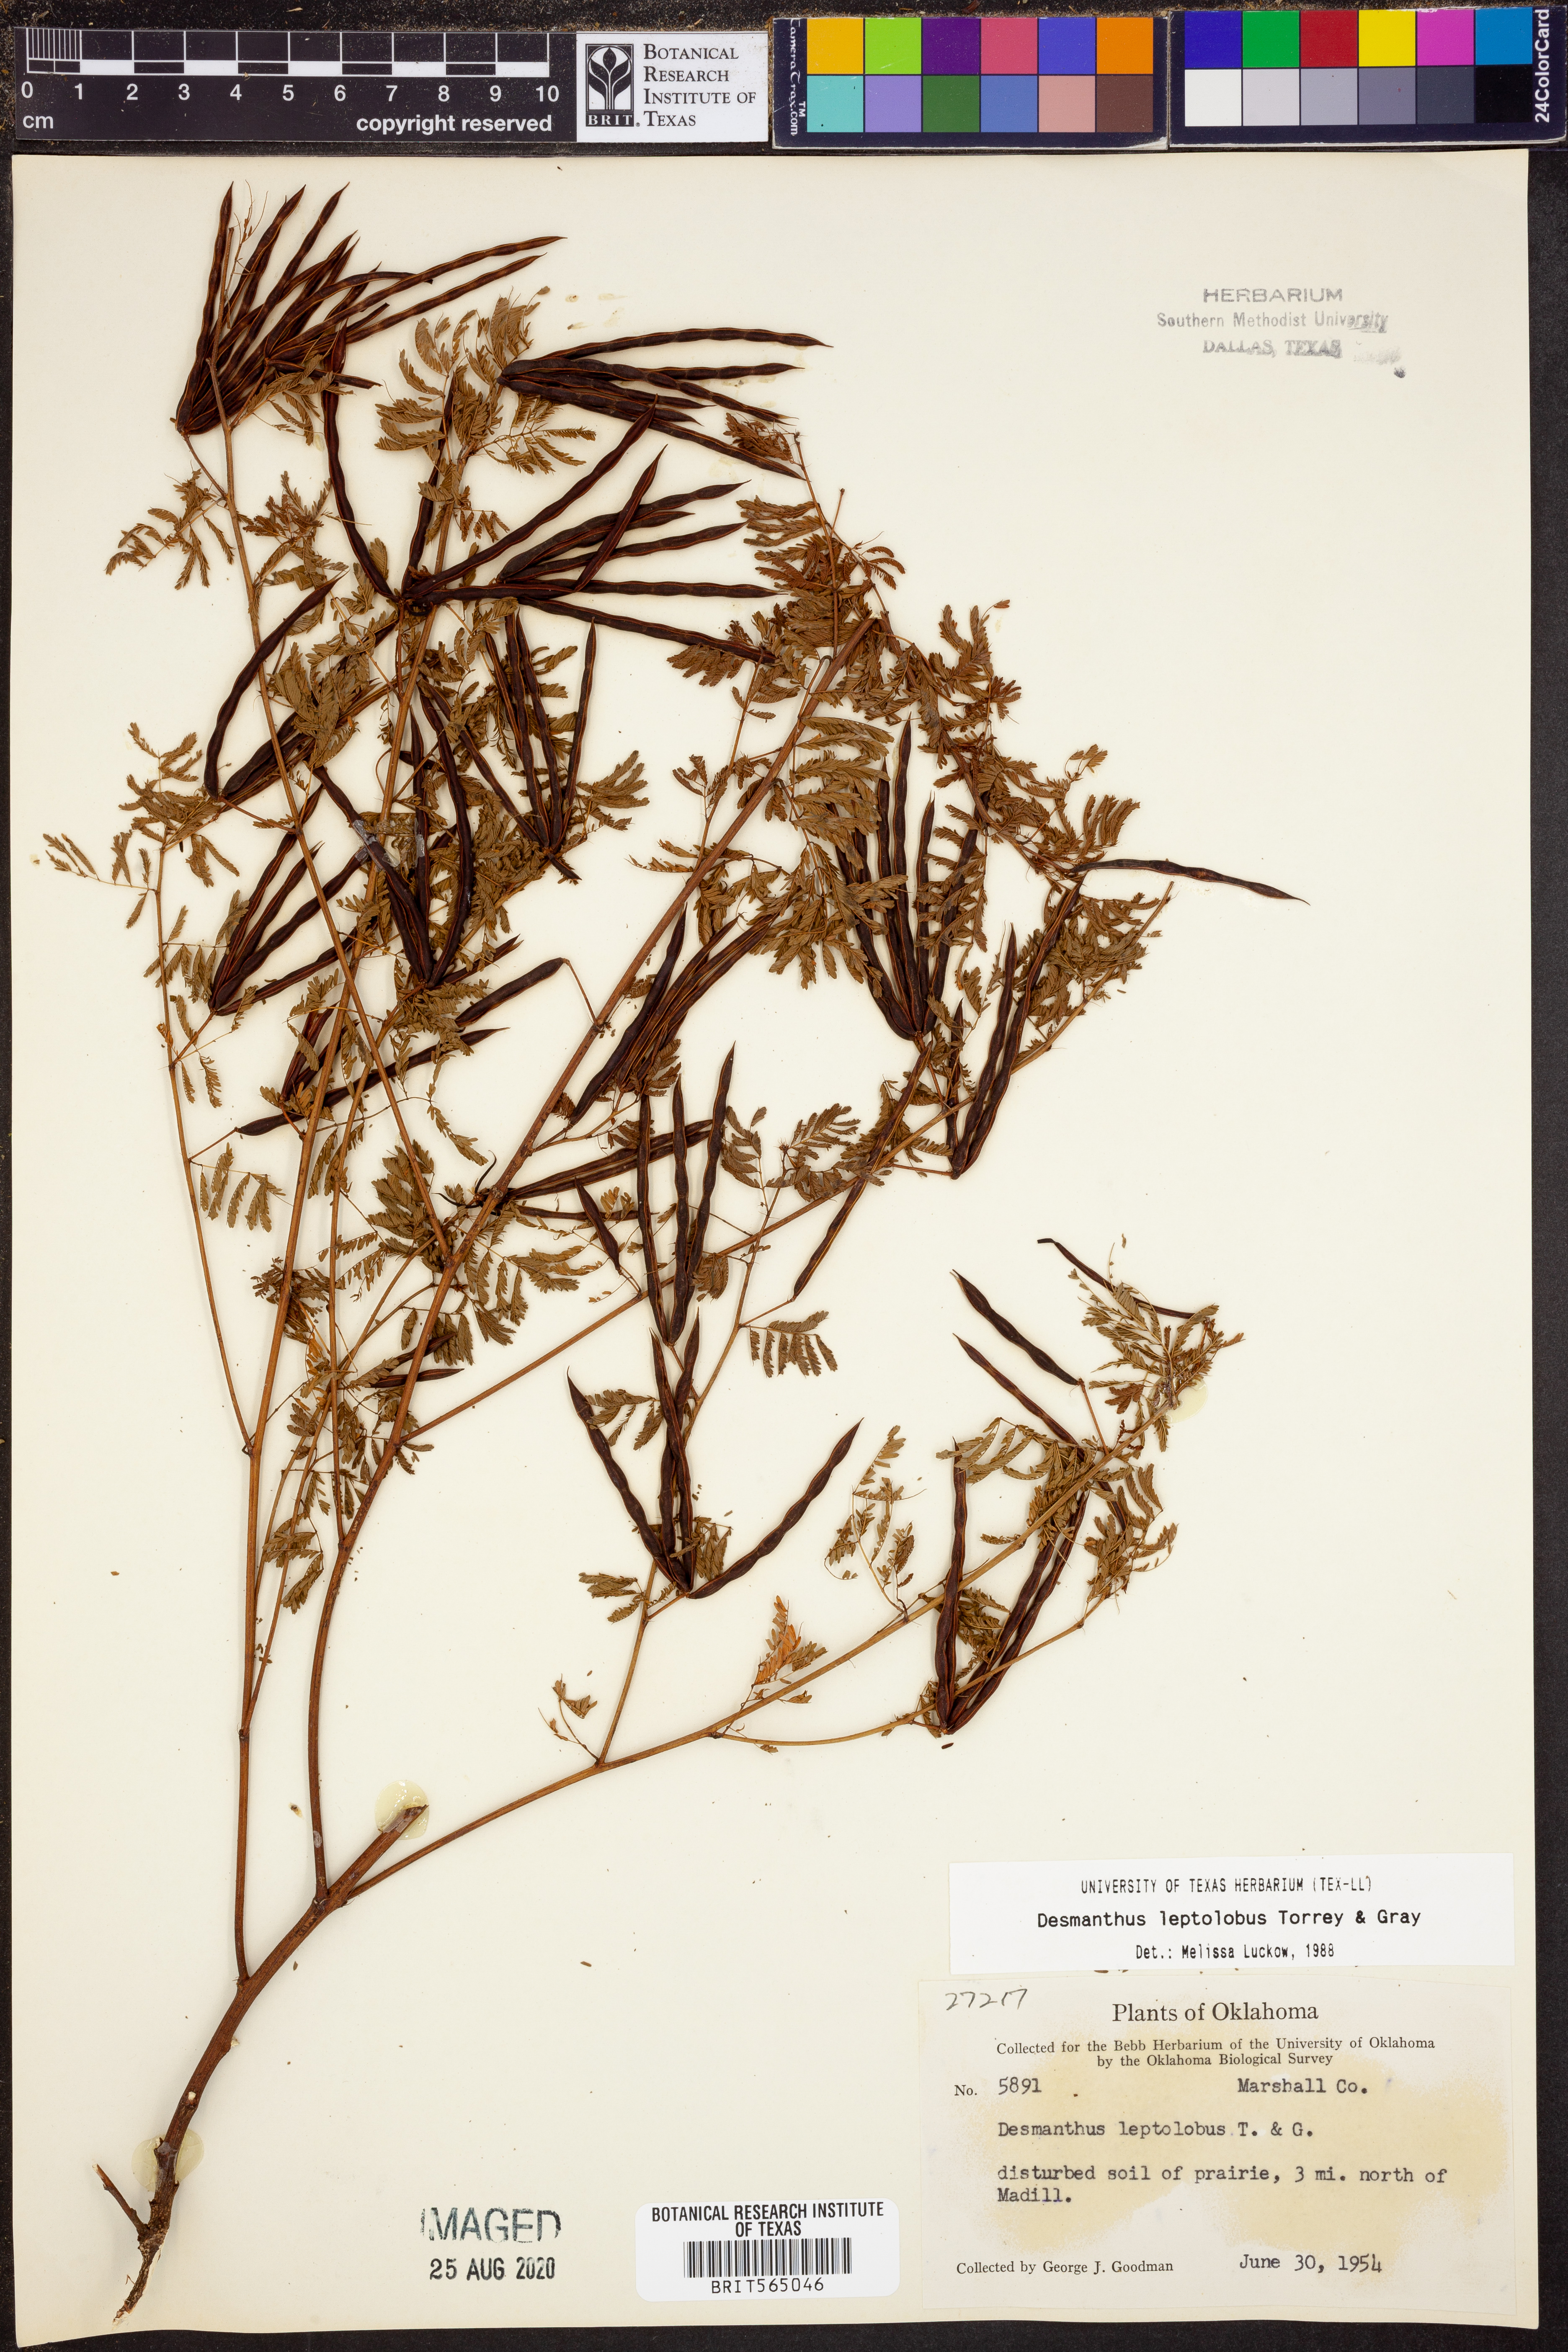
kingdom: Plantae
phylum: Tracheophyta
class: Magnoliopsida
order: Fabales
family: Fabaceae
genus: Desmanthus
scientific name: Desmanthus leptolobus
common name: Prairie-mimosa
